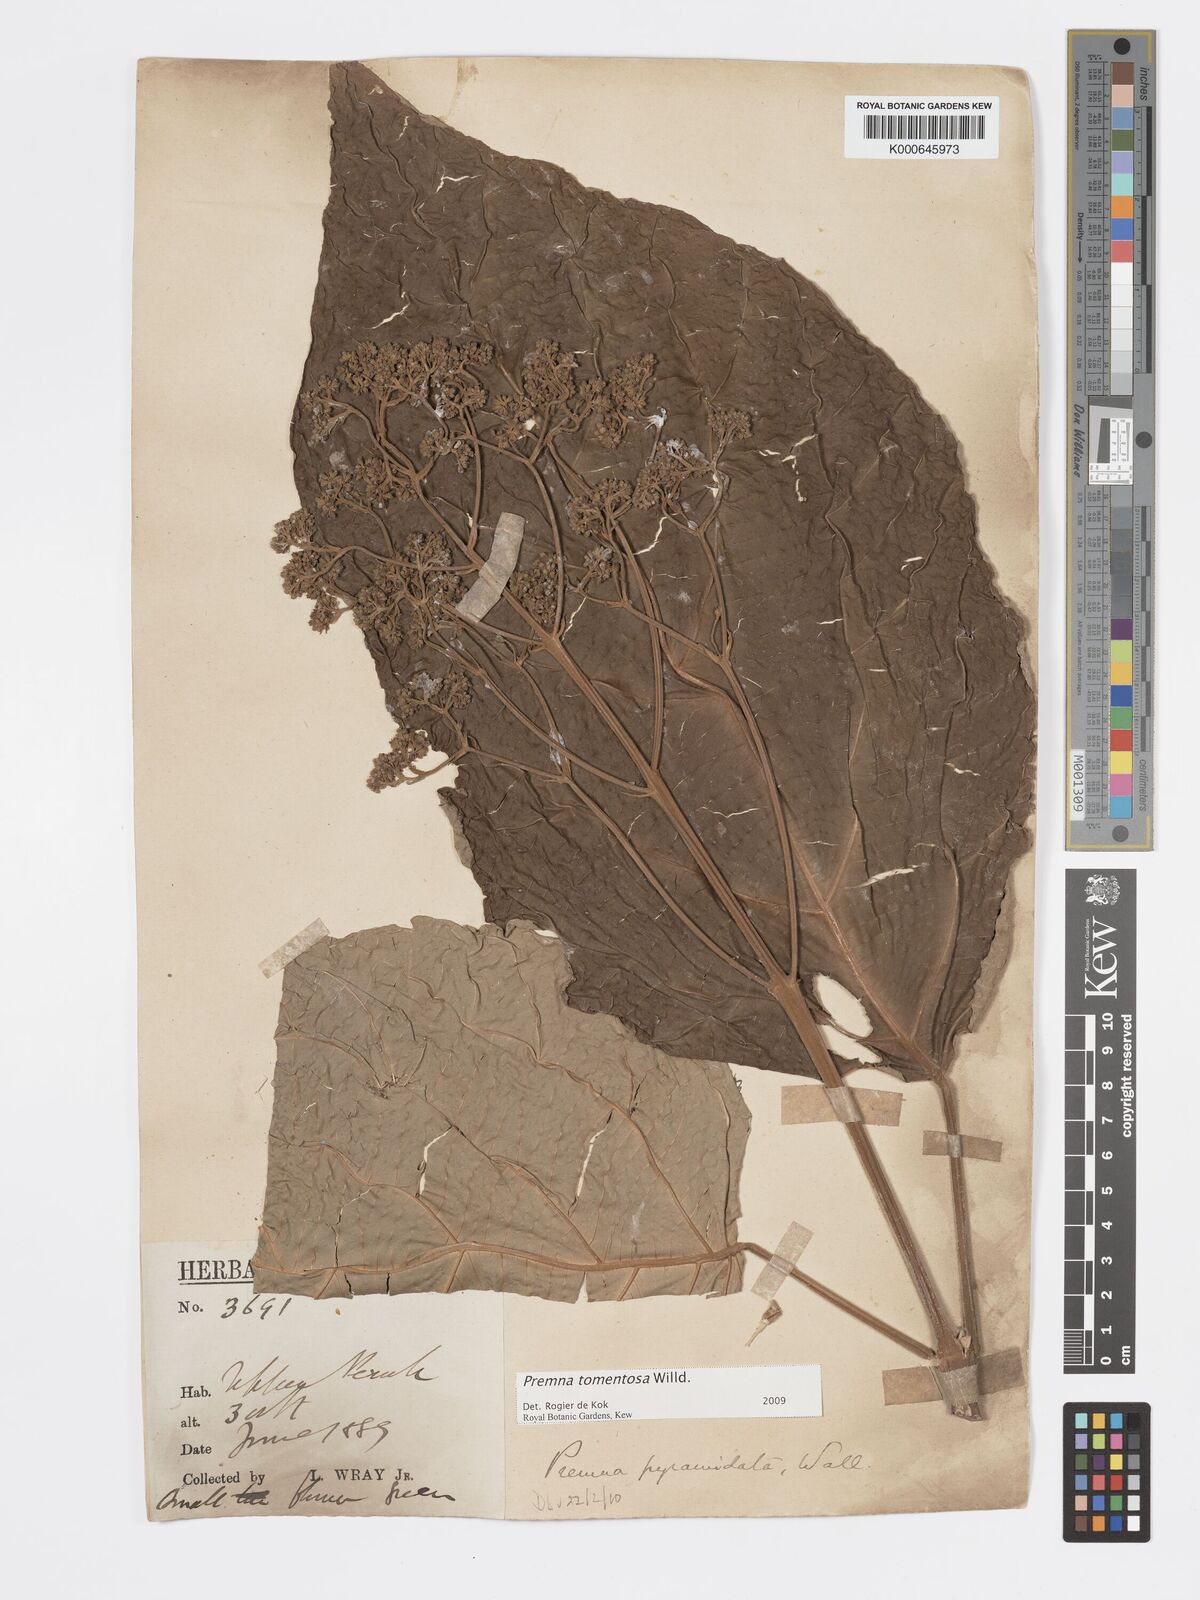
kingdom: Plantae
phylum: Tracheophyta
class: Magnoliopsida
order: Lamiales
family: Lamiaceae
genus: Premna
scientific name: Premna tomentosa
